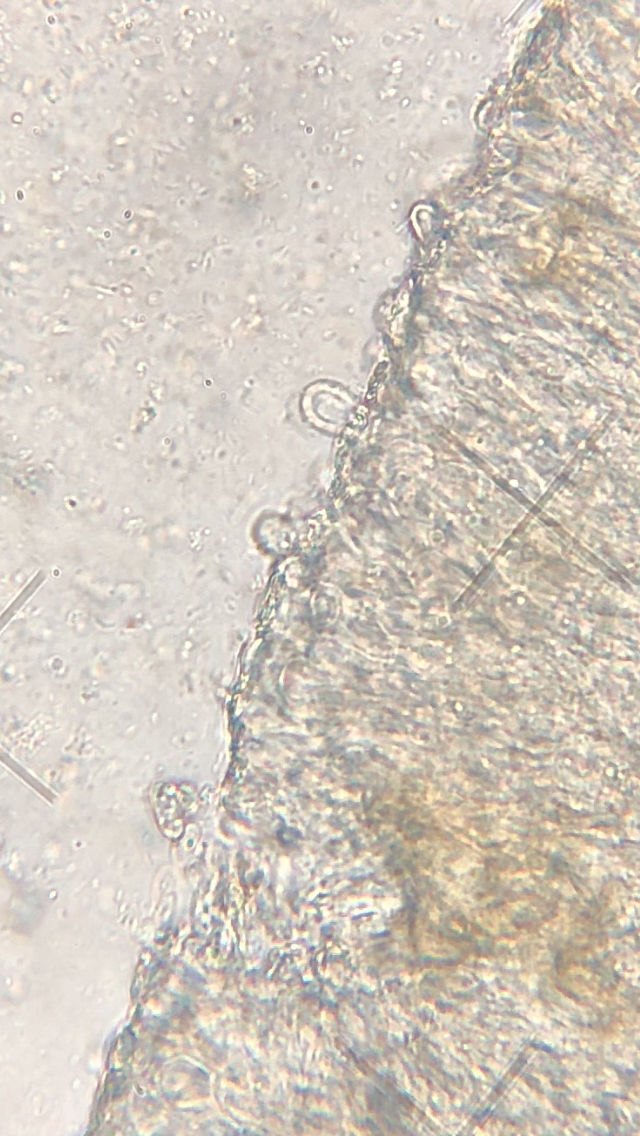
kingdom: Fungi
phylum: Basidiomycota
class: Agaricomycetes
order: Agaricales
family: Marasmiaceae
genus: Calyptella
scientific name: Calyptella
